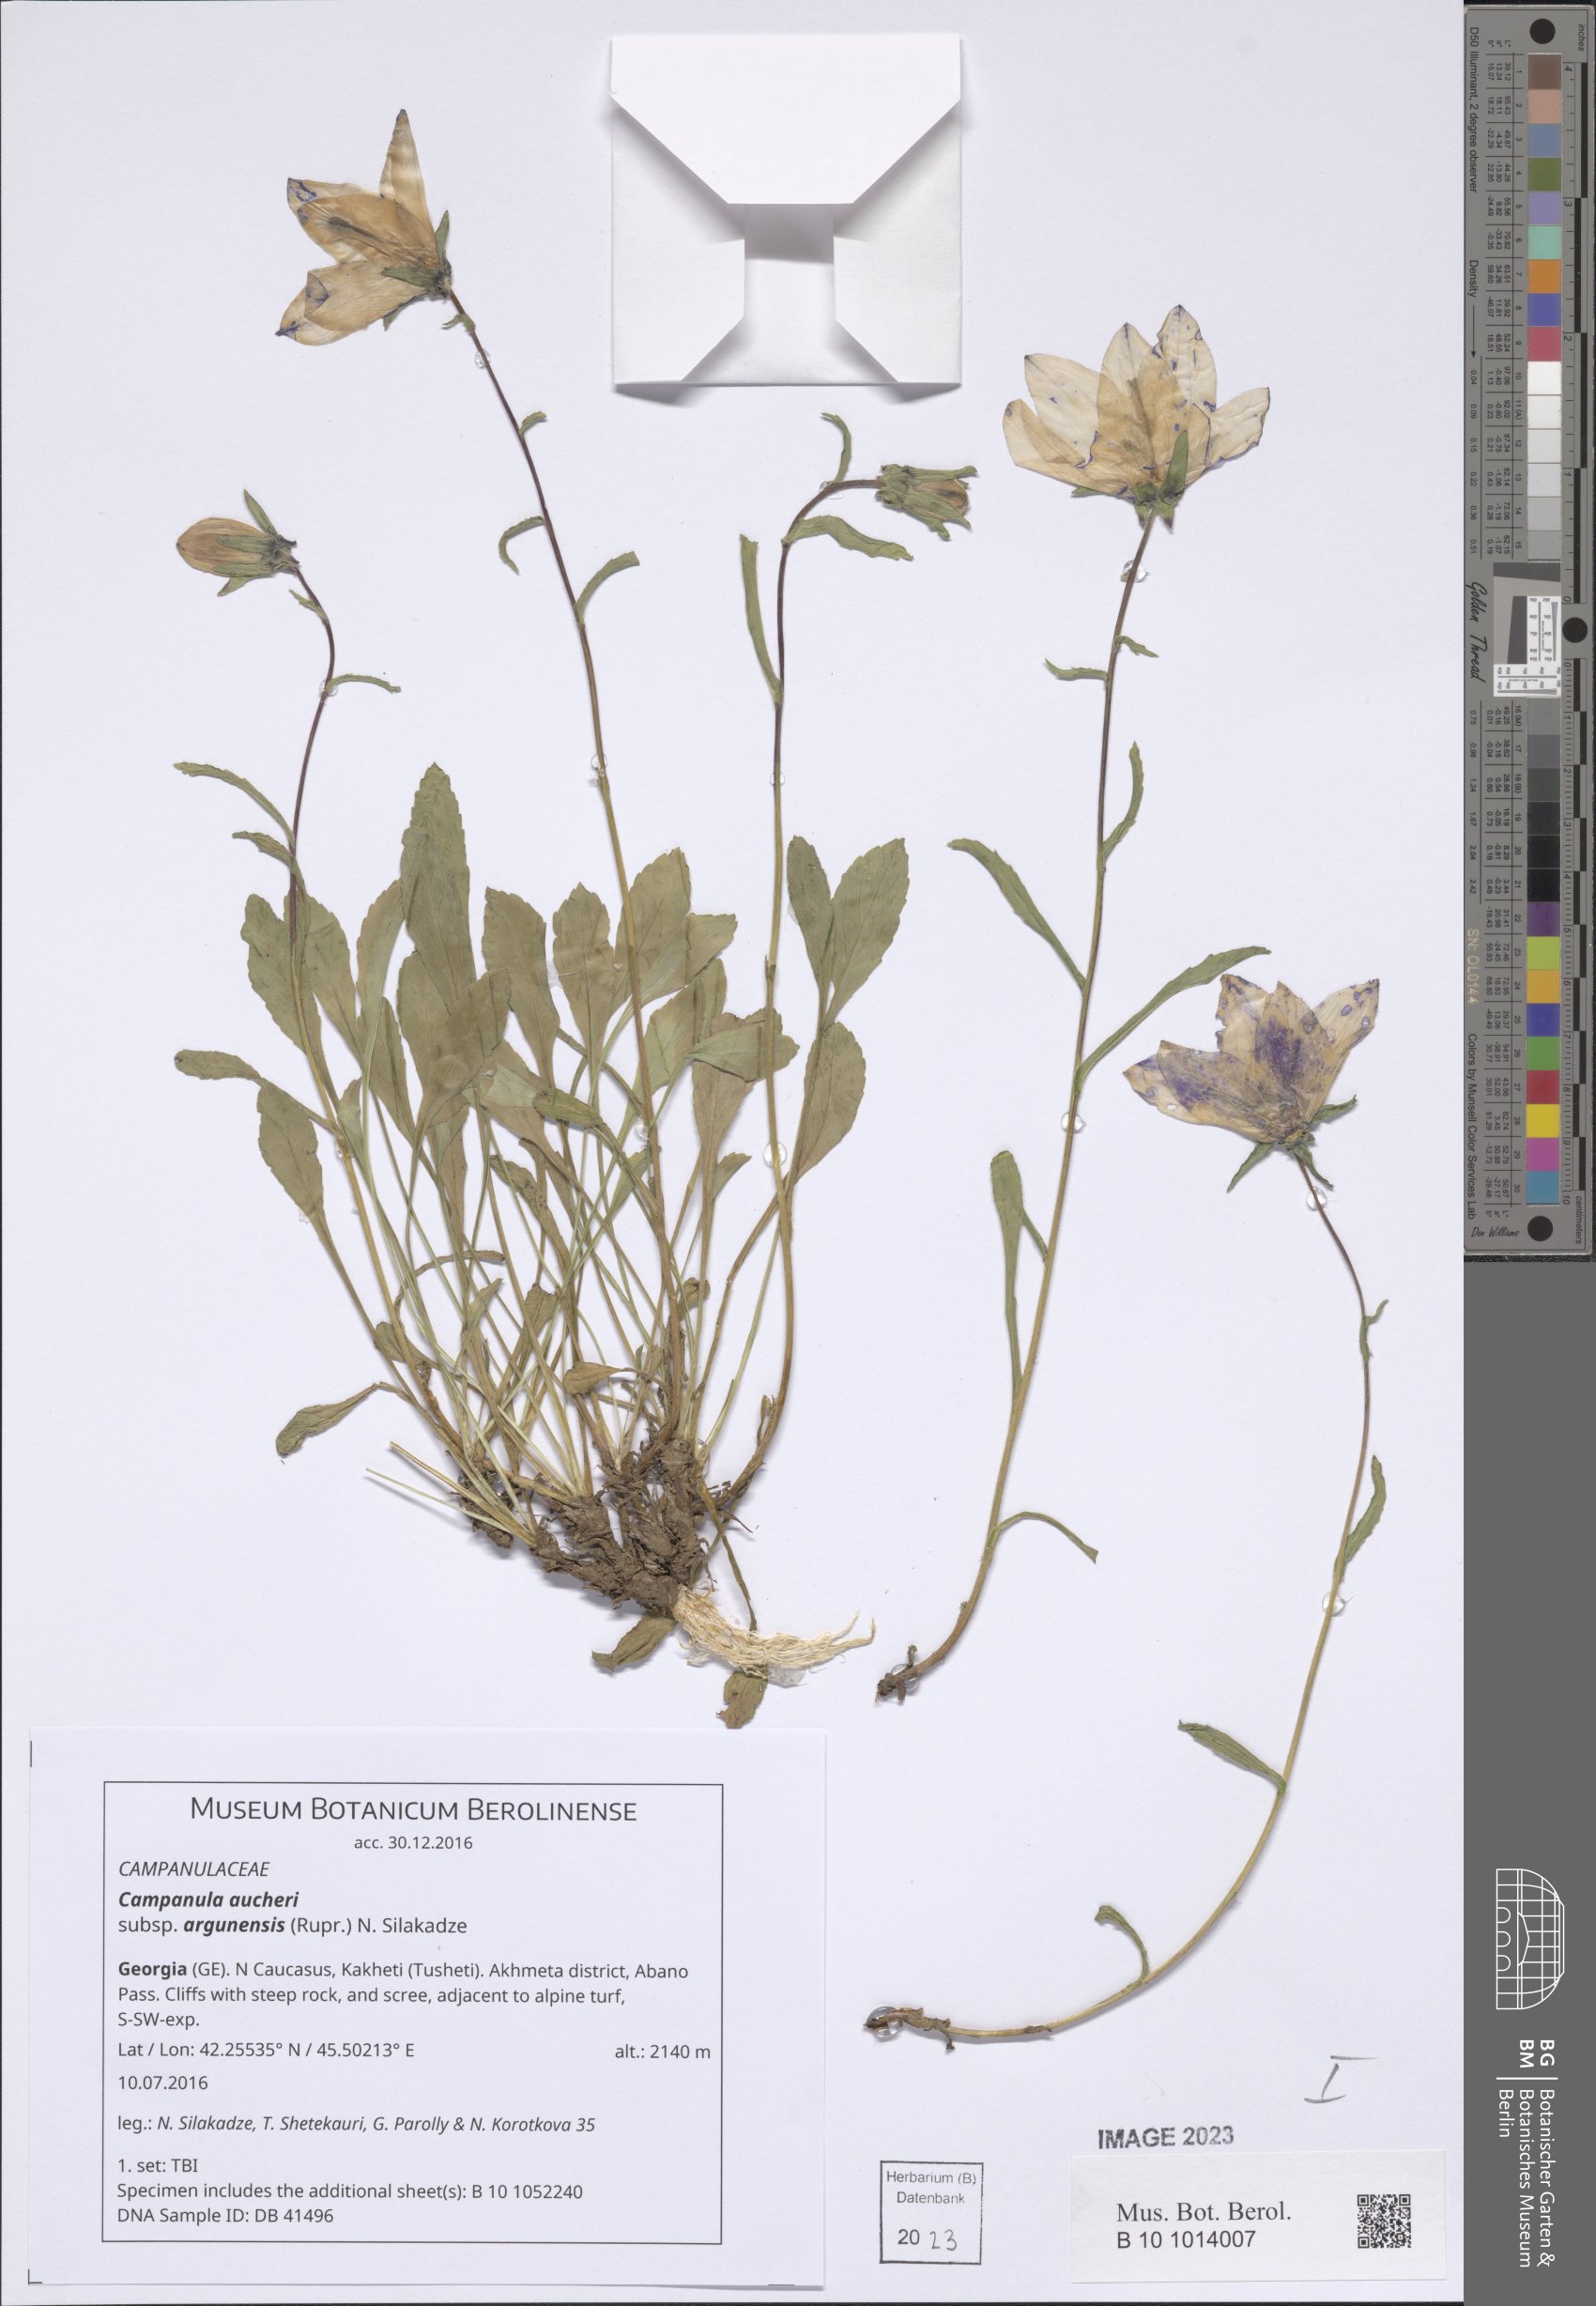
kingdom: Plantae
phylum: Tracheophyta
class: Magnoliopsida
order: Asterales
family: Campanulaceae
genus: Campanula
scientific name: Campanula saxifraga
